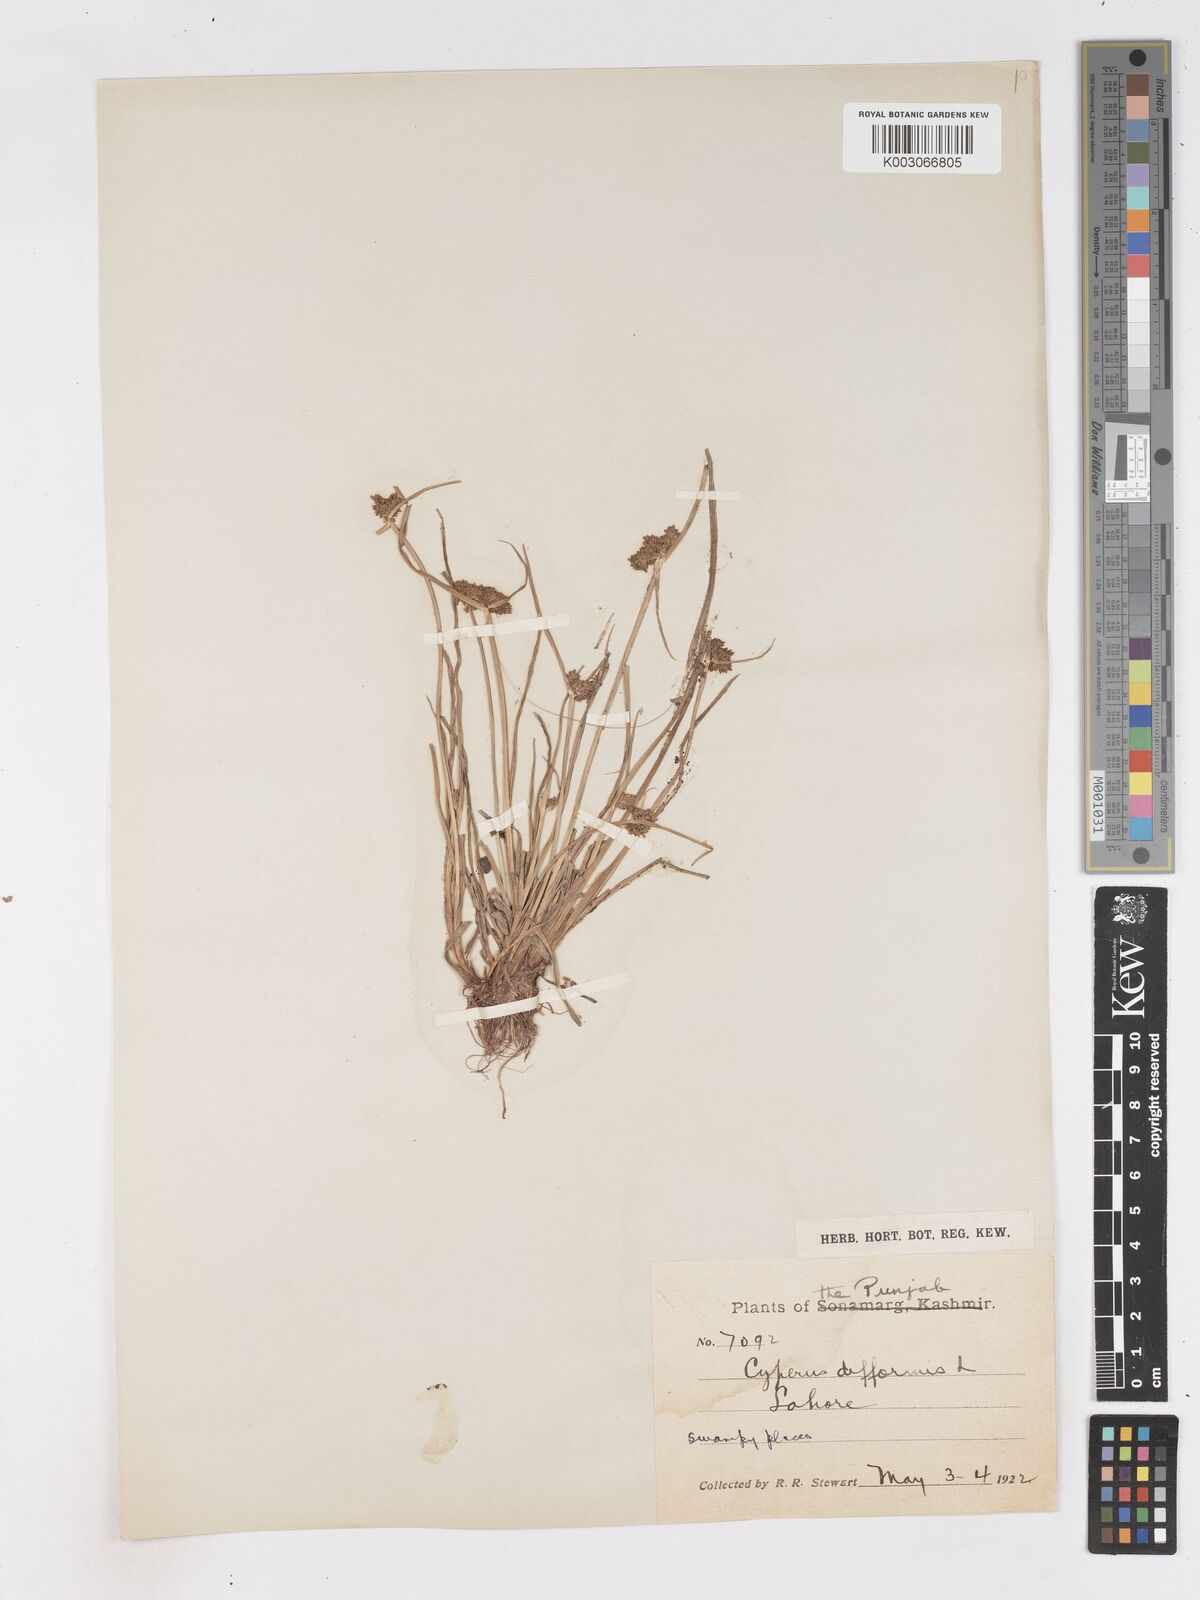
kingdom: Plantae
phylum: Tracheophyta
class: Liliopsida
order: Poales
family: Cyperaceae
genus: Cyperus
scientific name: Cyperus difformis
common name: Variable flatsedge
